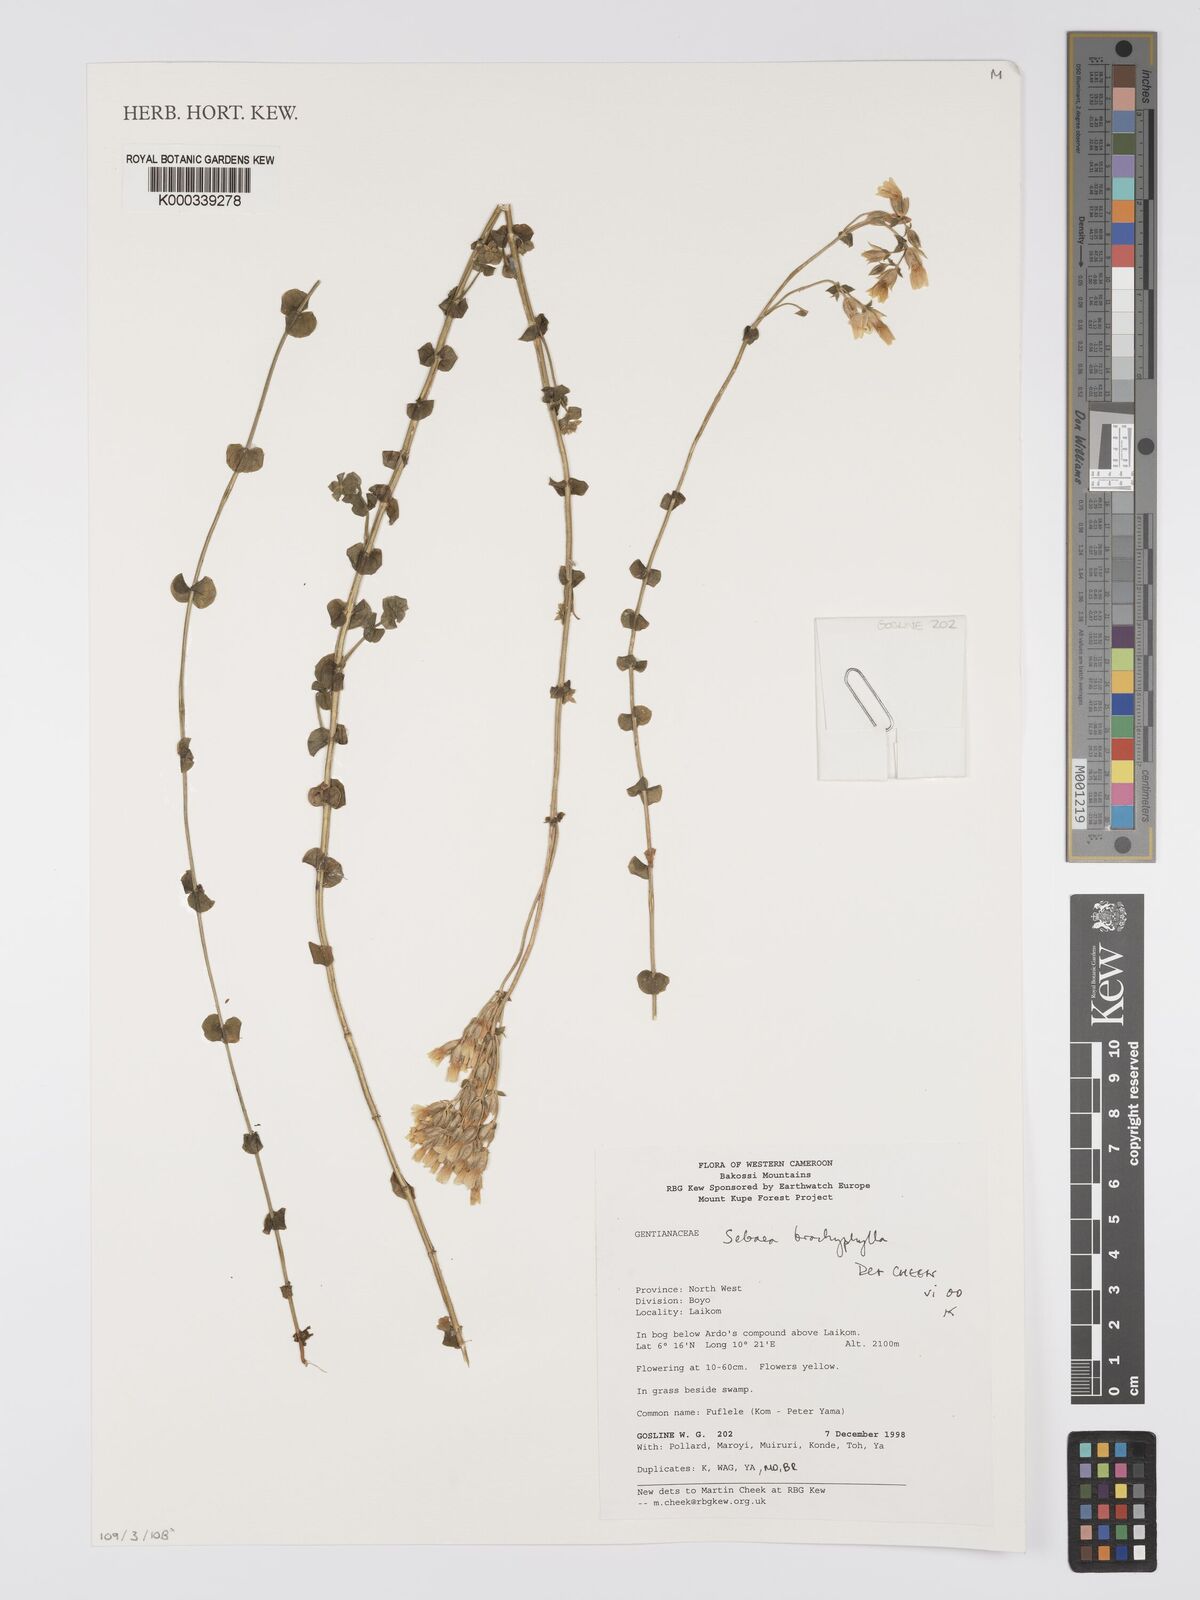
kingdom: Plantae
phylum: Tracheophyta
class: Magnoliopsida
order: Gentianales
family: Gentianaceae
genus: Sebaea
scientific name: Sebaea brachyphylla
